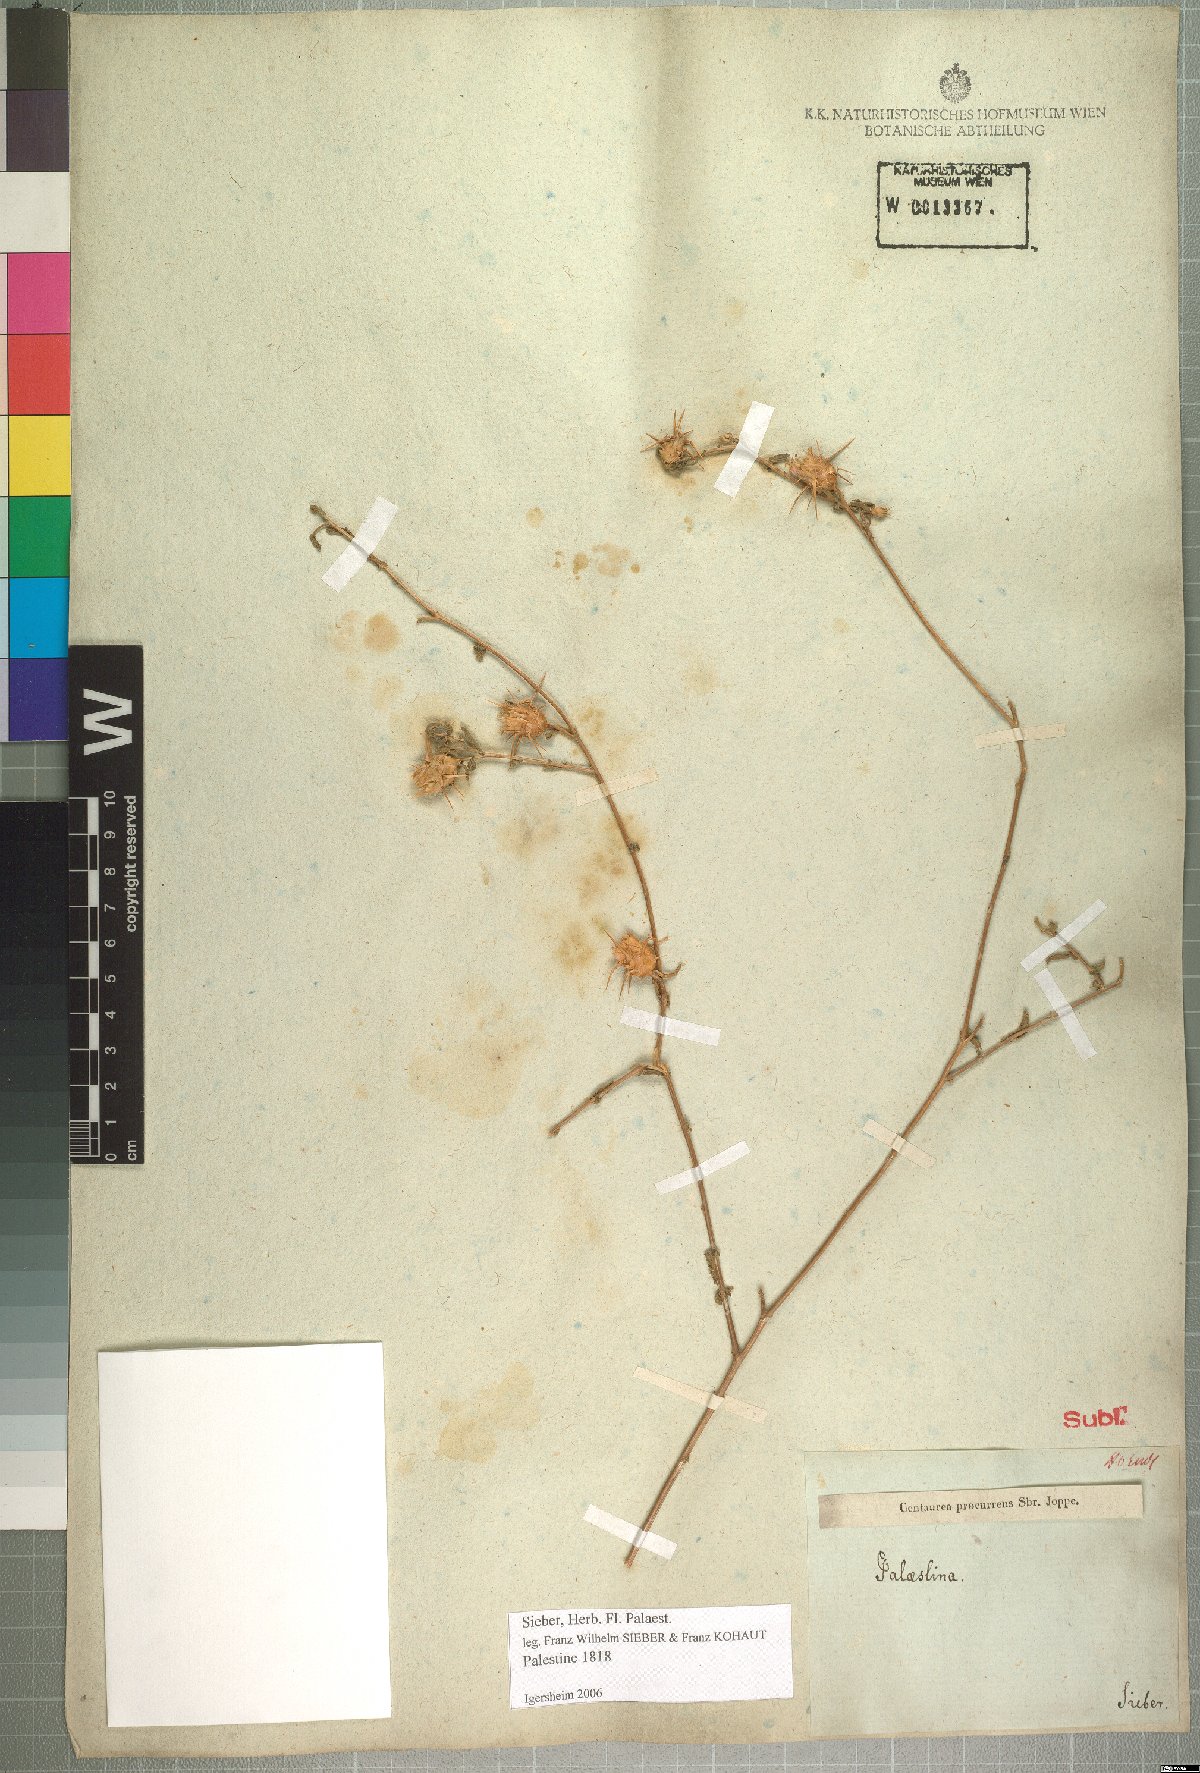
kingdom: Plantae
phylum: Tracheophyta
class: Magnoliopsida
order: Asterales
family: Asteraceae
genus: Centaurea
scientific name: Centaurea procurrens
